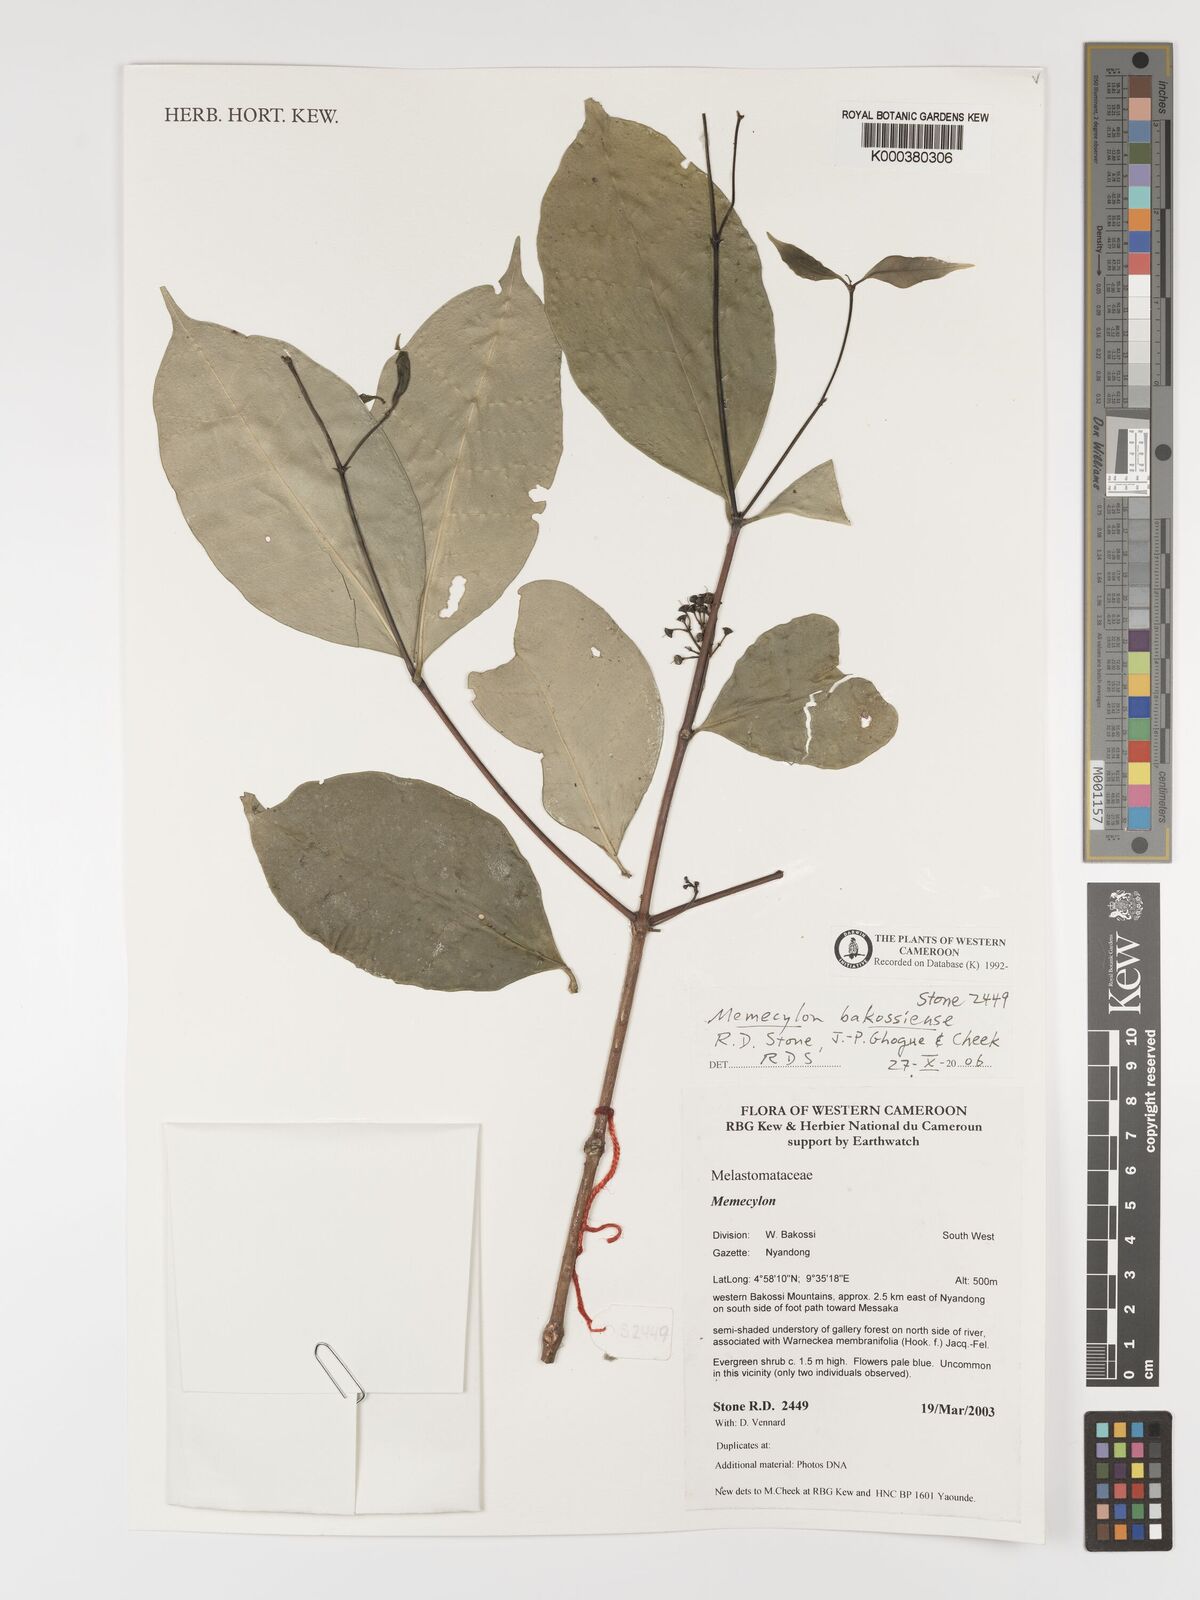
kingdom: Plantae
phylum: Tracheophyta
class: Magnoliopsida
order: Myrtales
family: Melastomataceae
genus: Memecylon
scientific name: Memecylon
